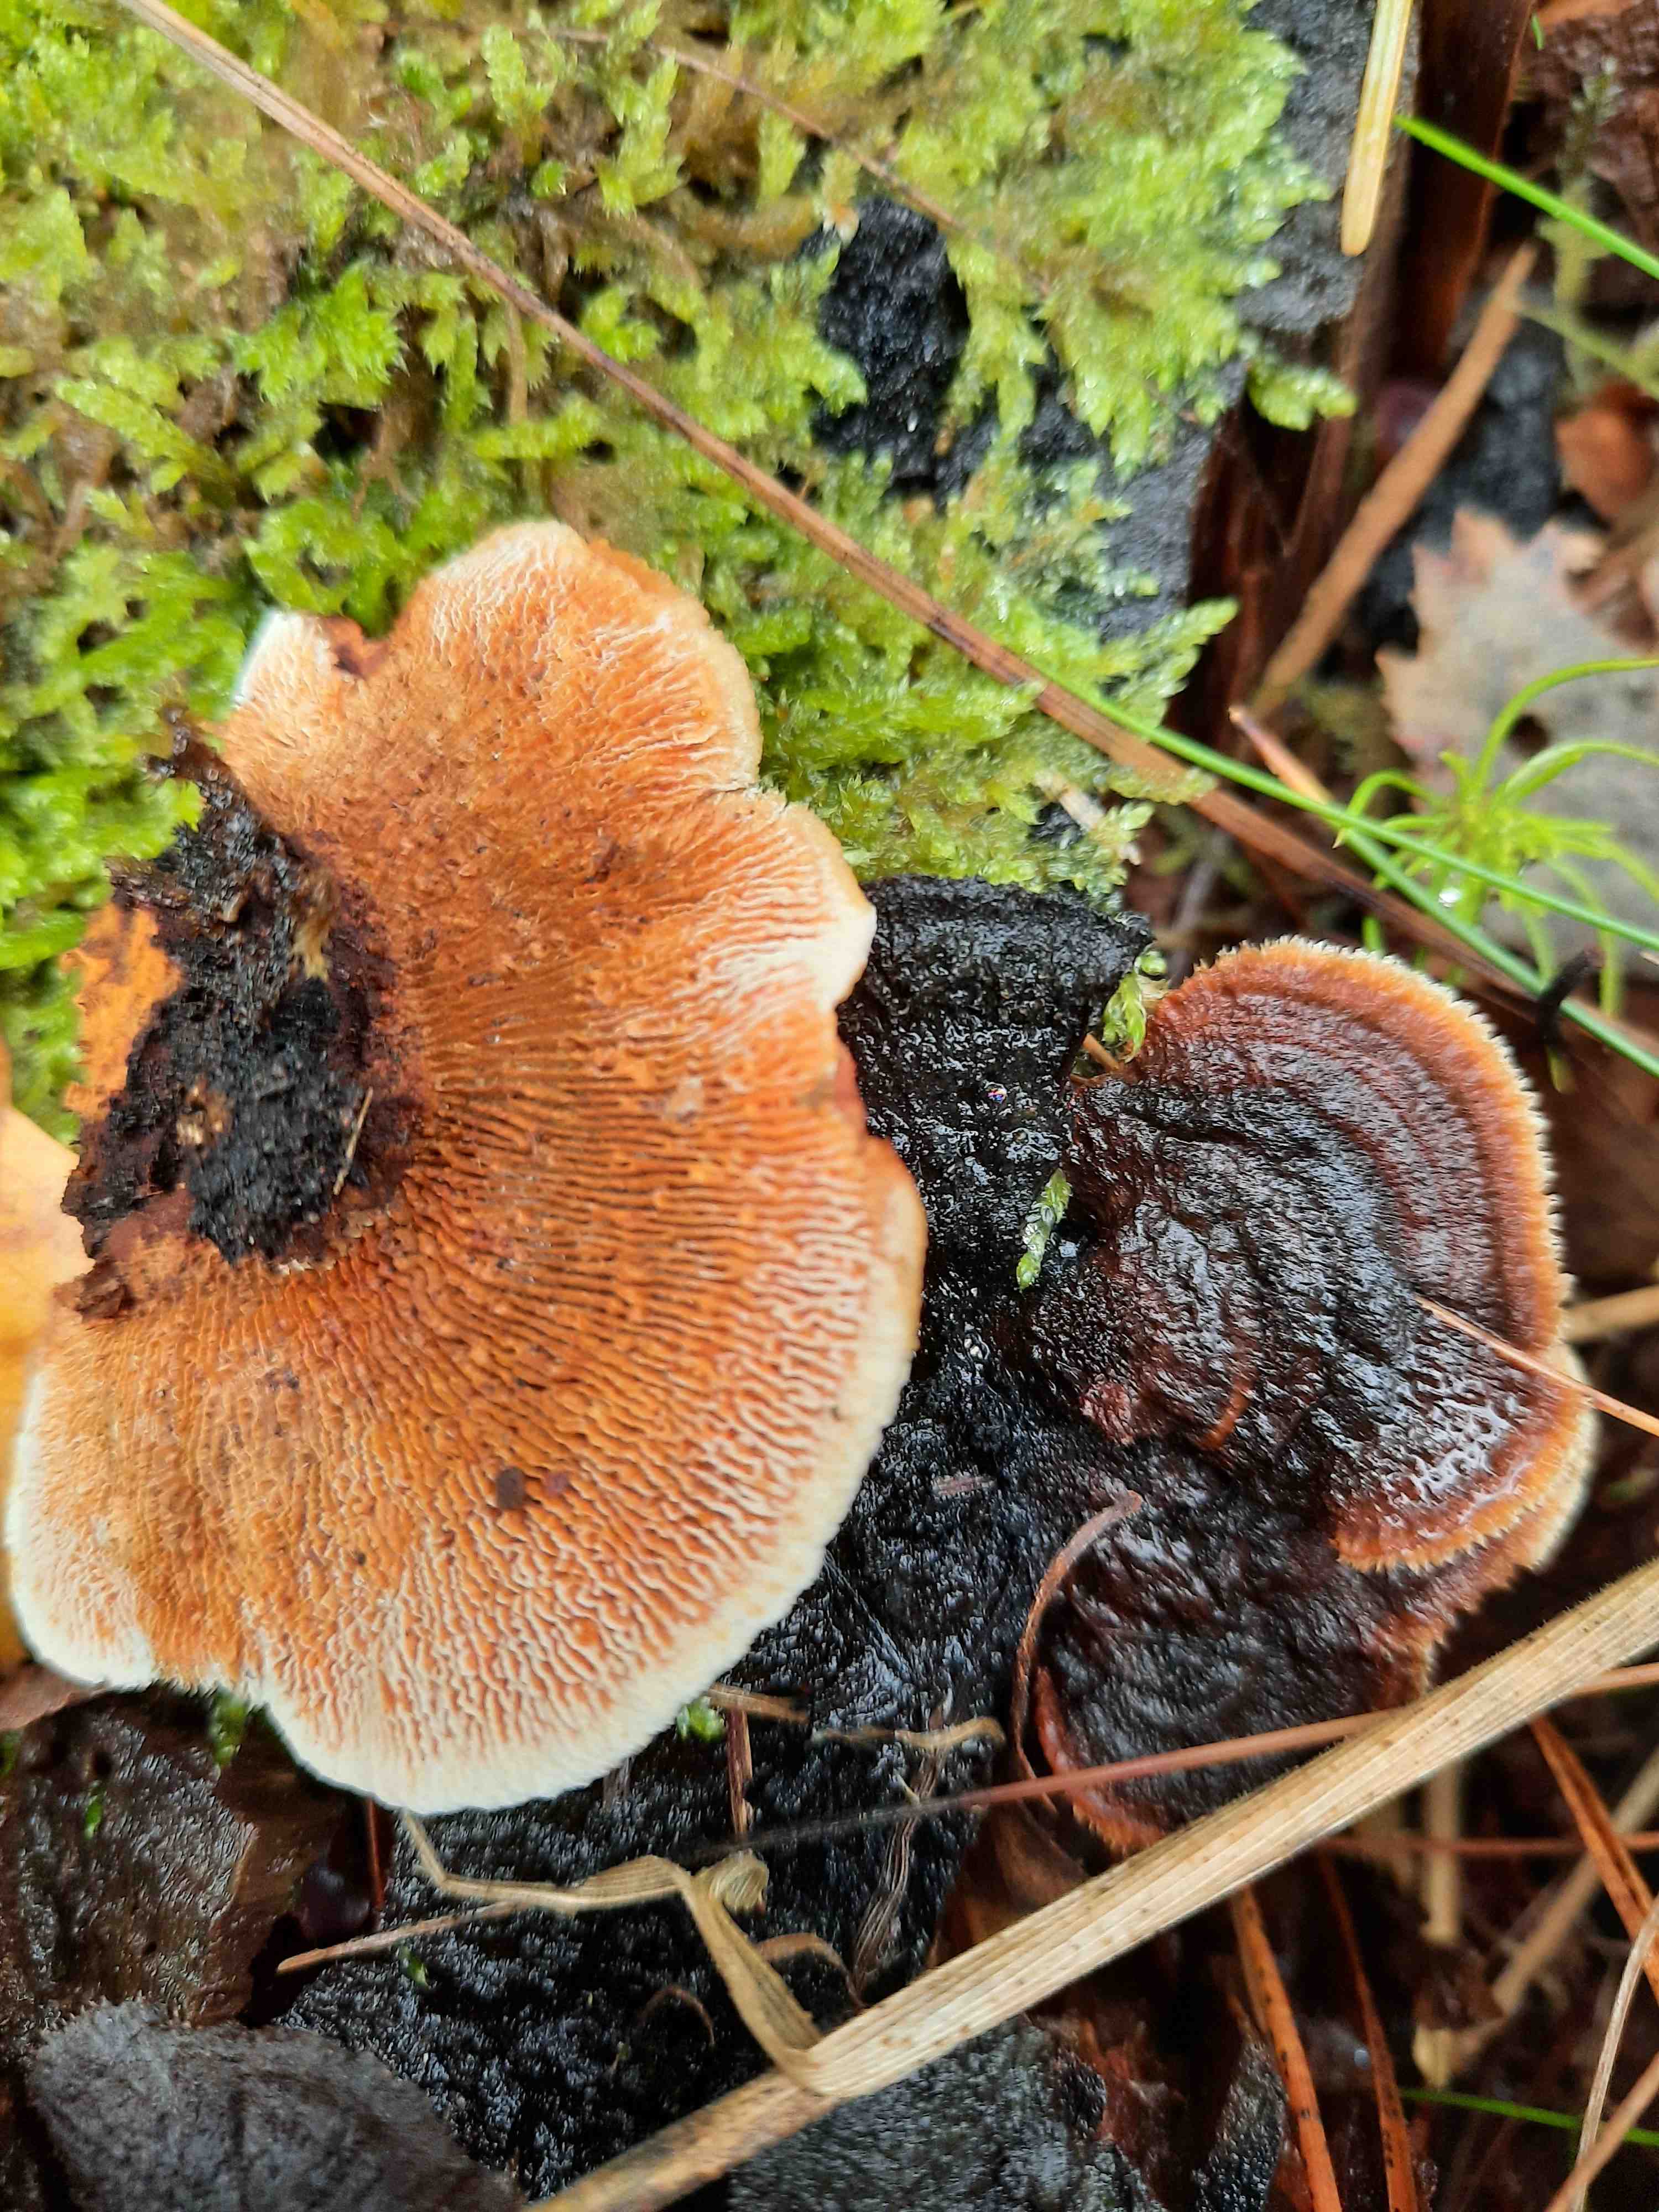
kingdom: Fungi
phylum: Basidiomycota
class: Agaricomycetes
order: Gloeophyllales
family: Gloeophyllaceae
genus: Gloeophyllum
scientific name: Gloeophyllum sepiarium
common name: fyrre-korkhat
